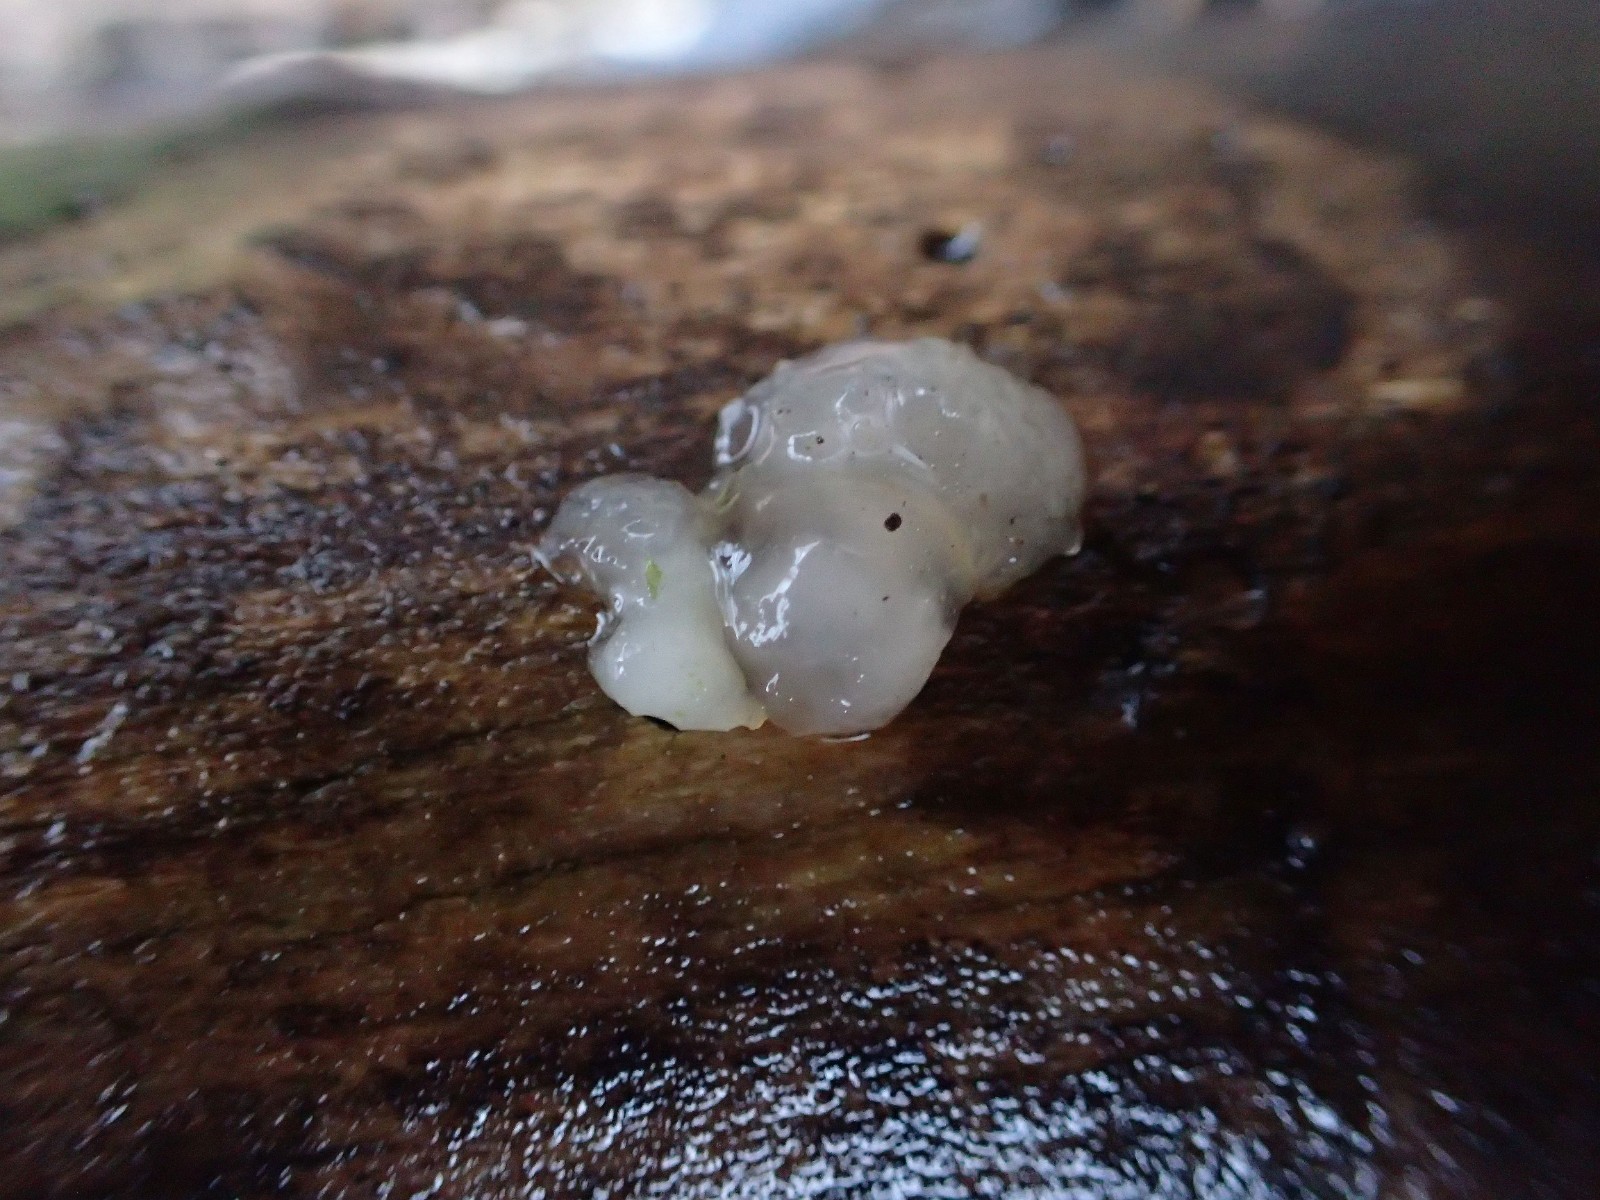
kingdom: Fungi
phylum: Basidiomycota
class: Agaricomycetes
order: Auriculariales
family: Hyaloriaceae
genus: Myxarium
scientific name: Myxarium nucleatum
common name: klar bævretop
